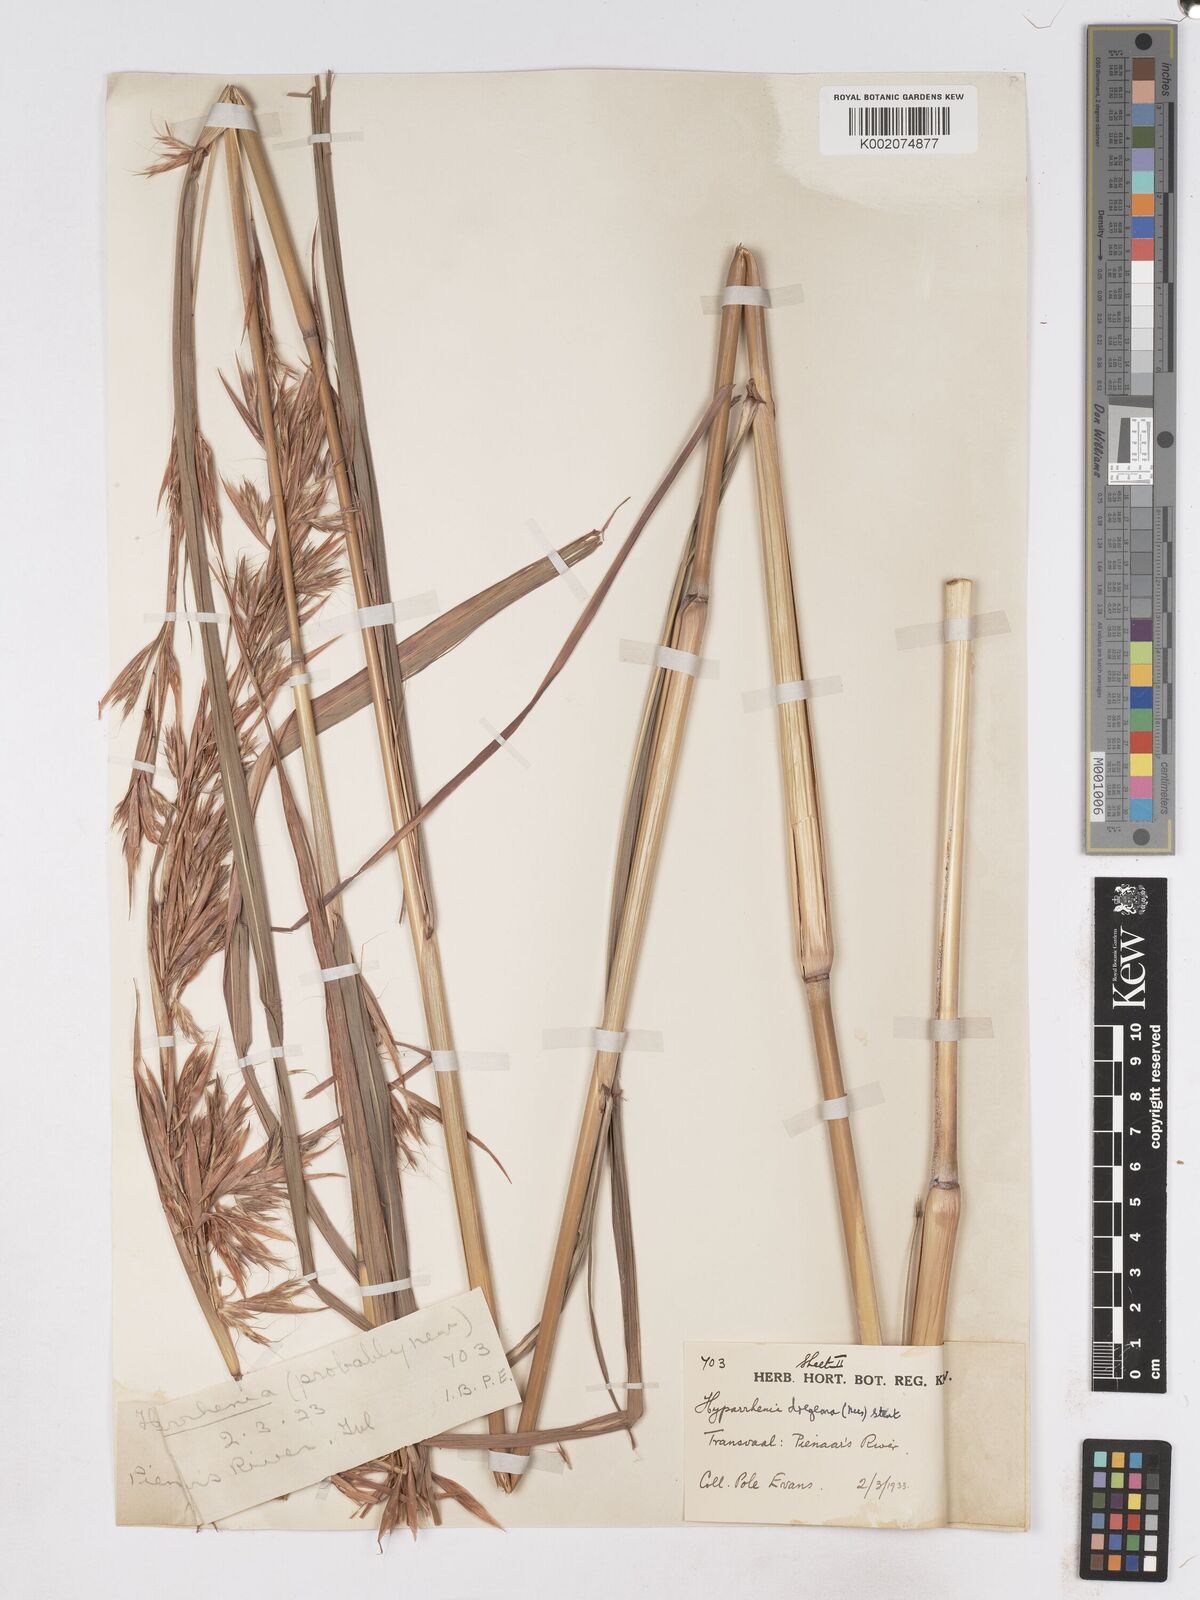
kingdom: Plantae
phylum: Tracheophyta
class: Liliopsida
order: Poales
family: Poaceae
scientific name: Poaceae
